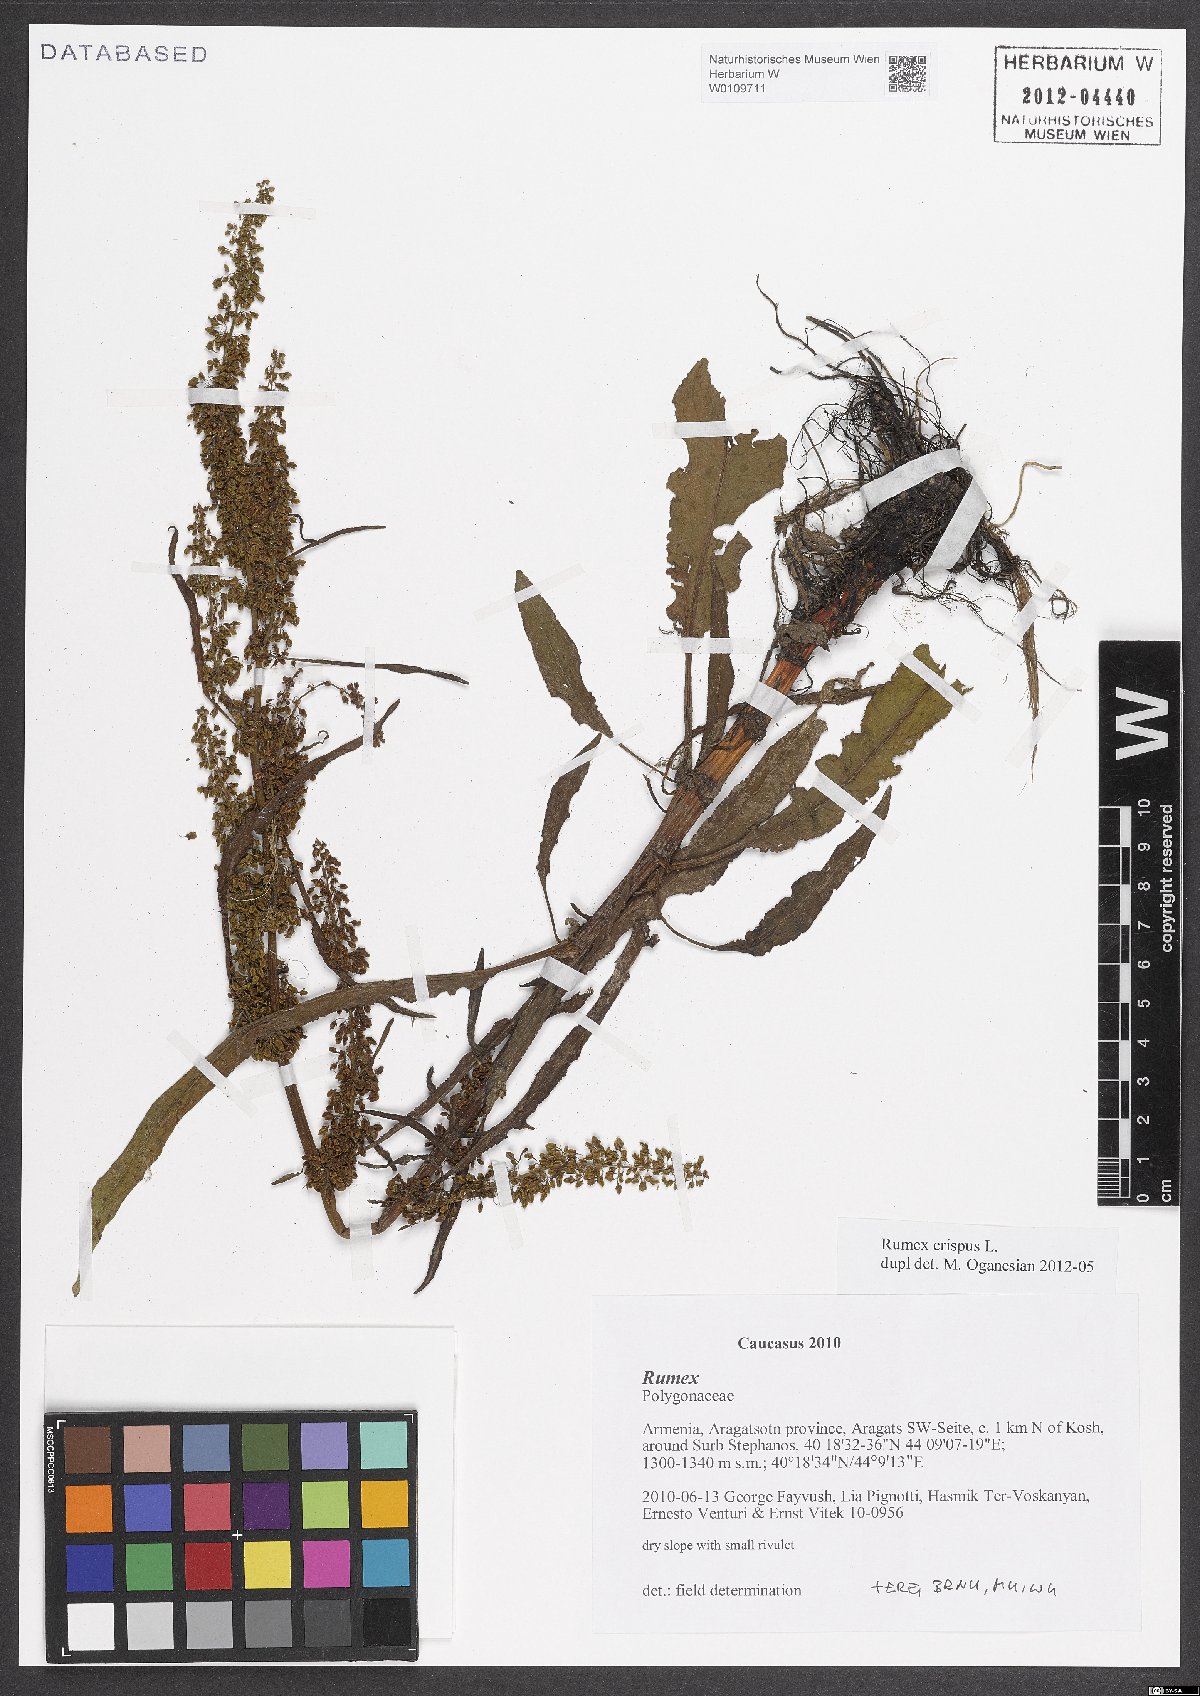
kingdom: Plantae
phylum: Tracheophyta
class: Magnoliopsida
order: Caryophyllales
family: Polygonaceae
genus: Rumex
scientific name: Rumex crispus
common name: Curled dock
